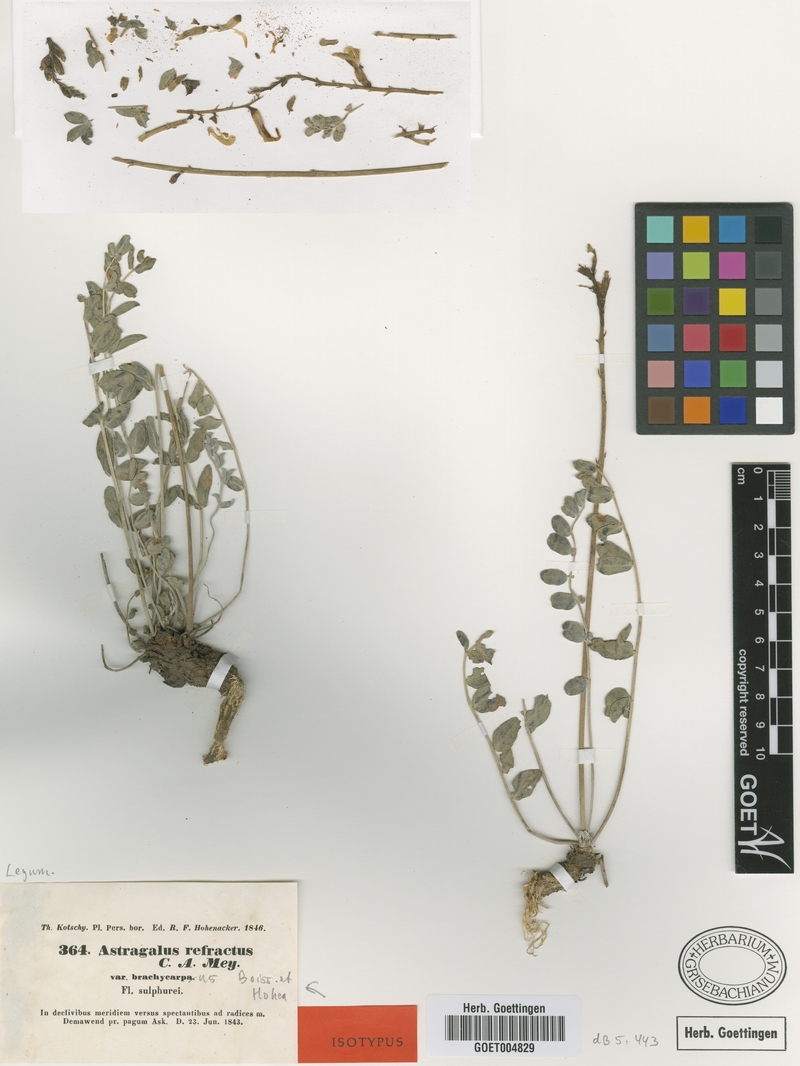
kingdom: Plantae
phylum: Tracheophyta
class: Magnoliopsida
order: Fabales
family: Fabaceae
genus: Astragalus
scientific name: Astragalus refractus
